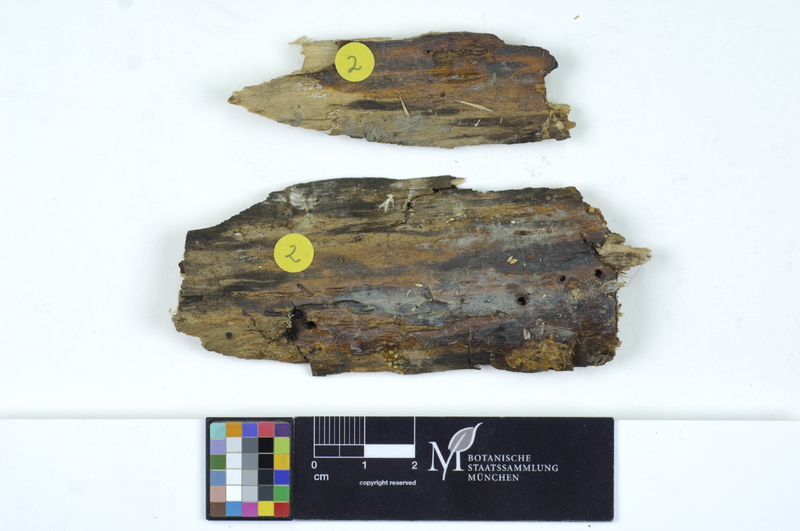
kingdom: Plantae
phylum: Tracheophyta
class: Magnoliopsida
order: Malpighiales
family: Salicaceae
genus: Salix
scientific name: Salix alba
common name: White willow
